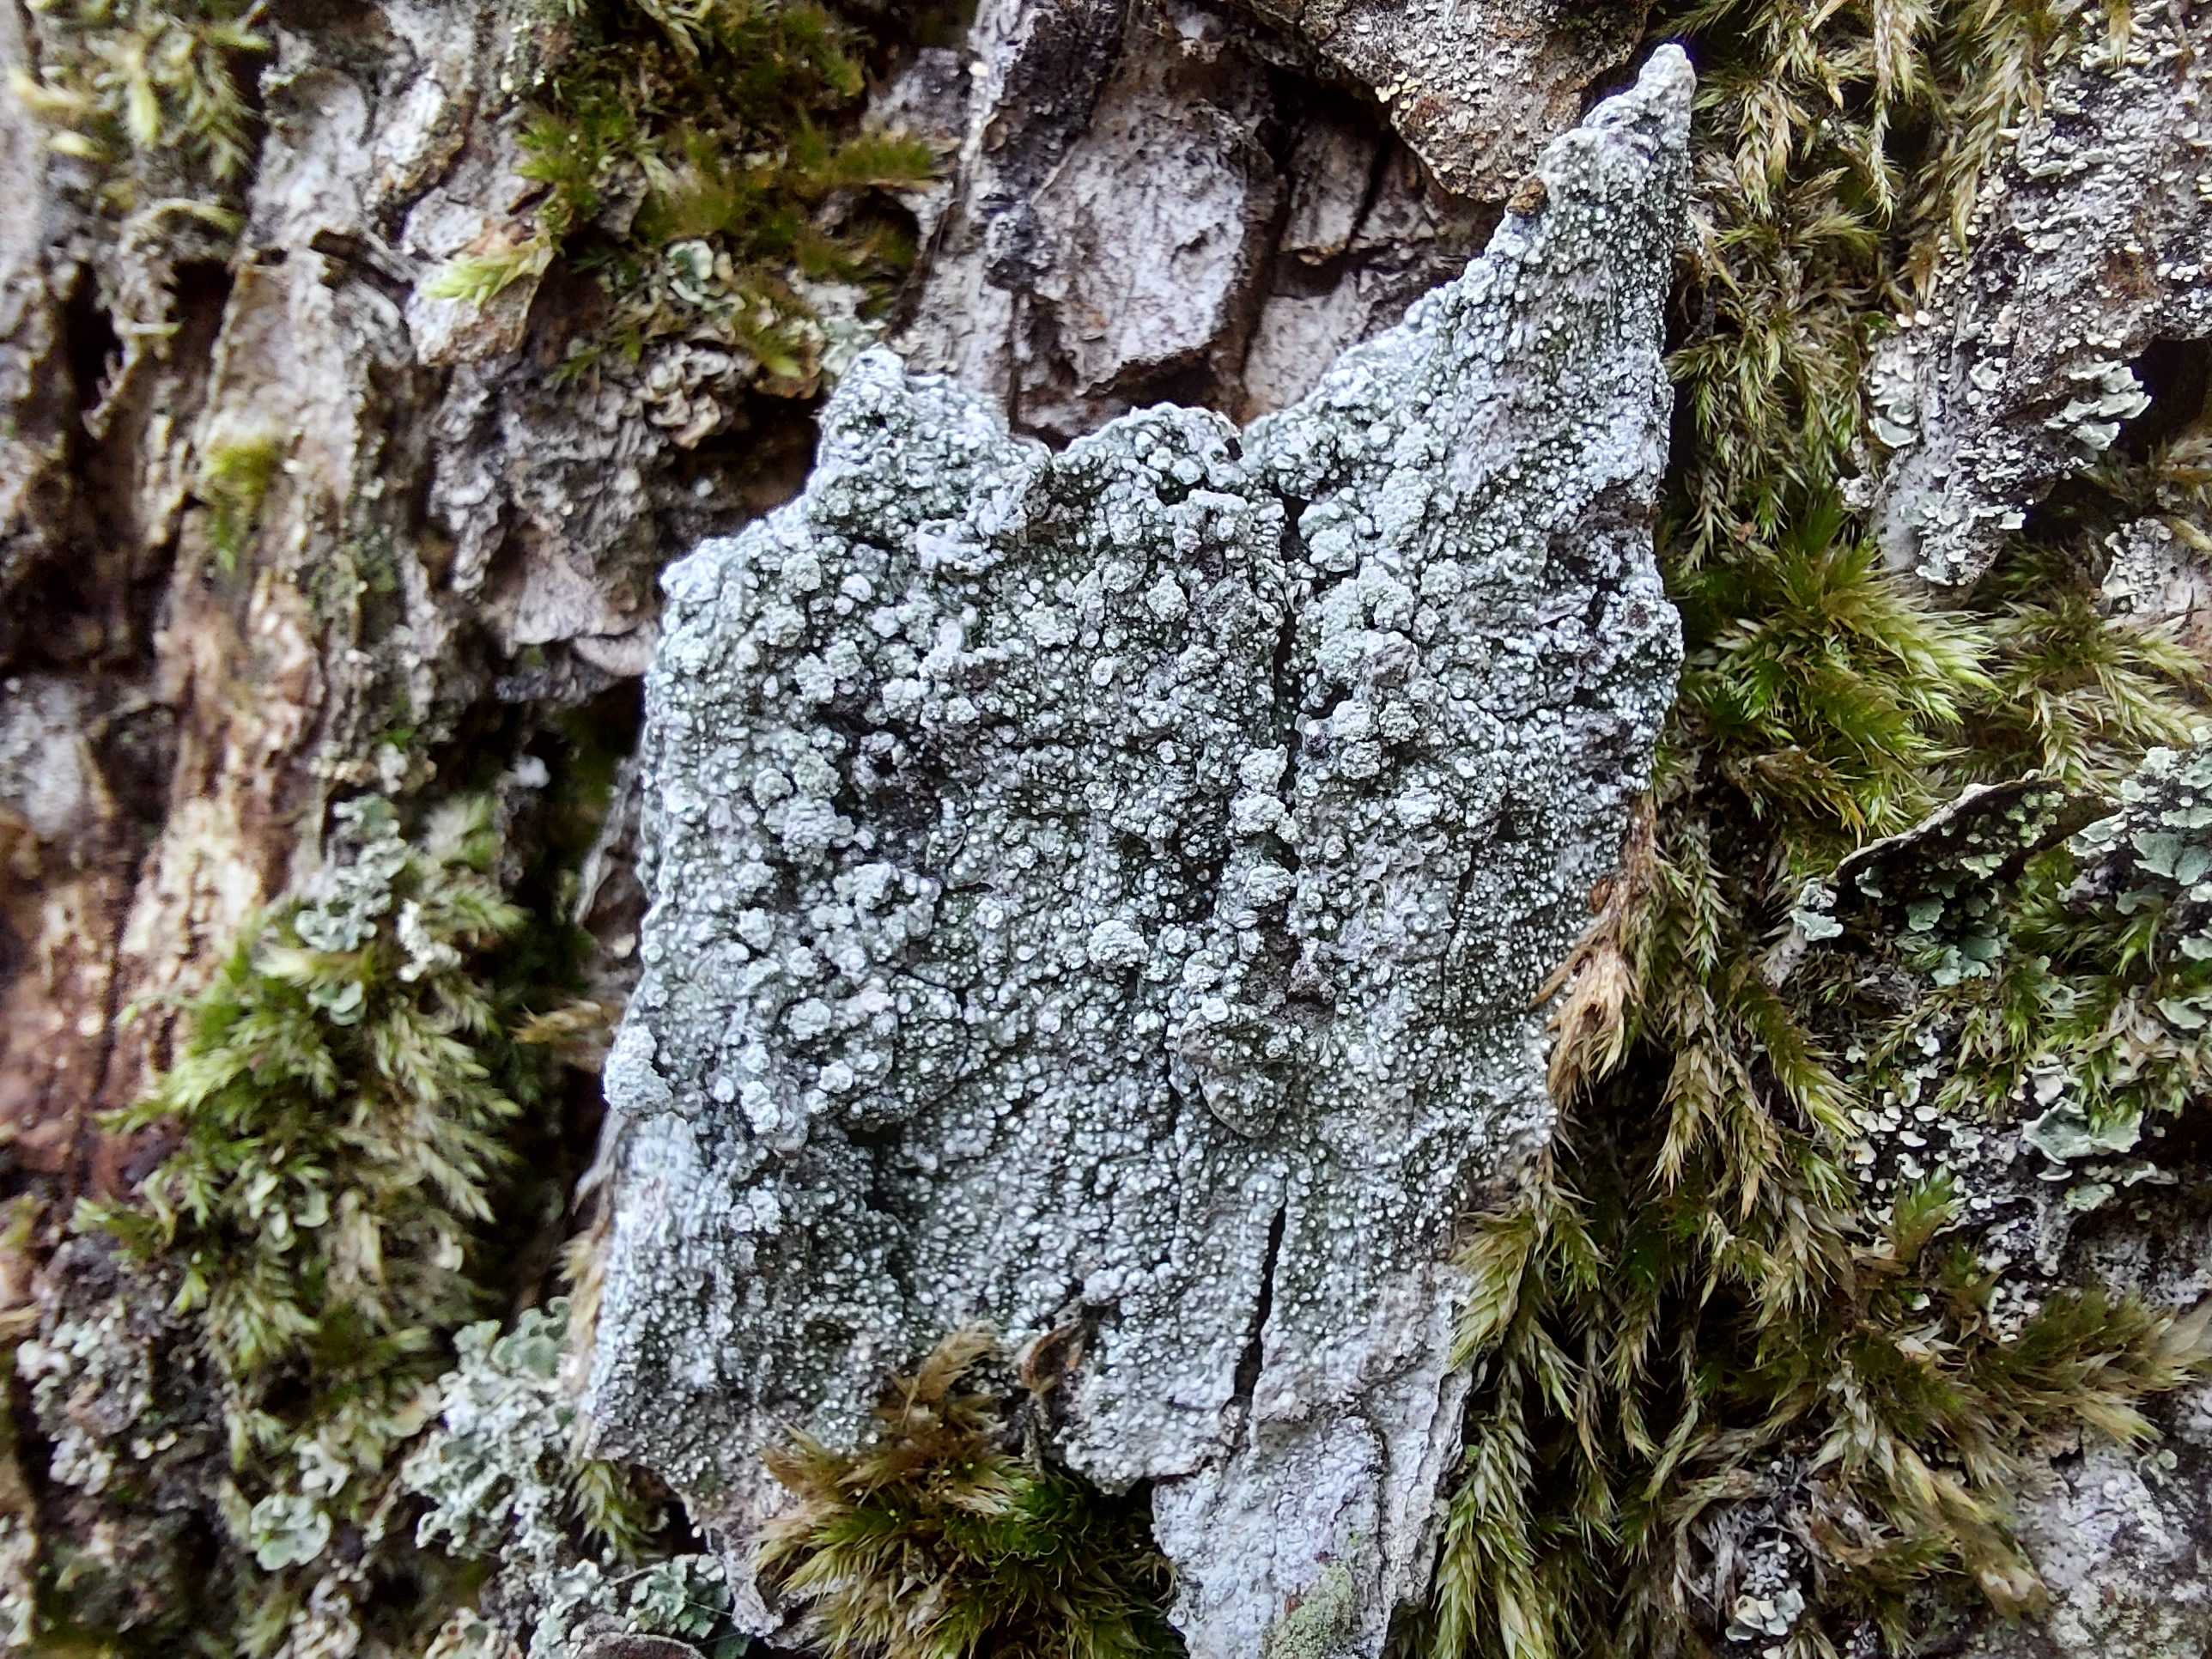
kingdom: Fungi
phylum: Ascomycota
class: Lecanoromycetes
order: Pertusariales
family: Pertusariaceae
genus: Lepra
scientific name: Lepra albescens
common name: hvidmelet prikvortelav
